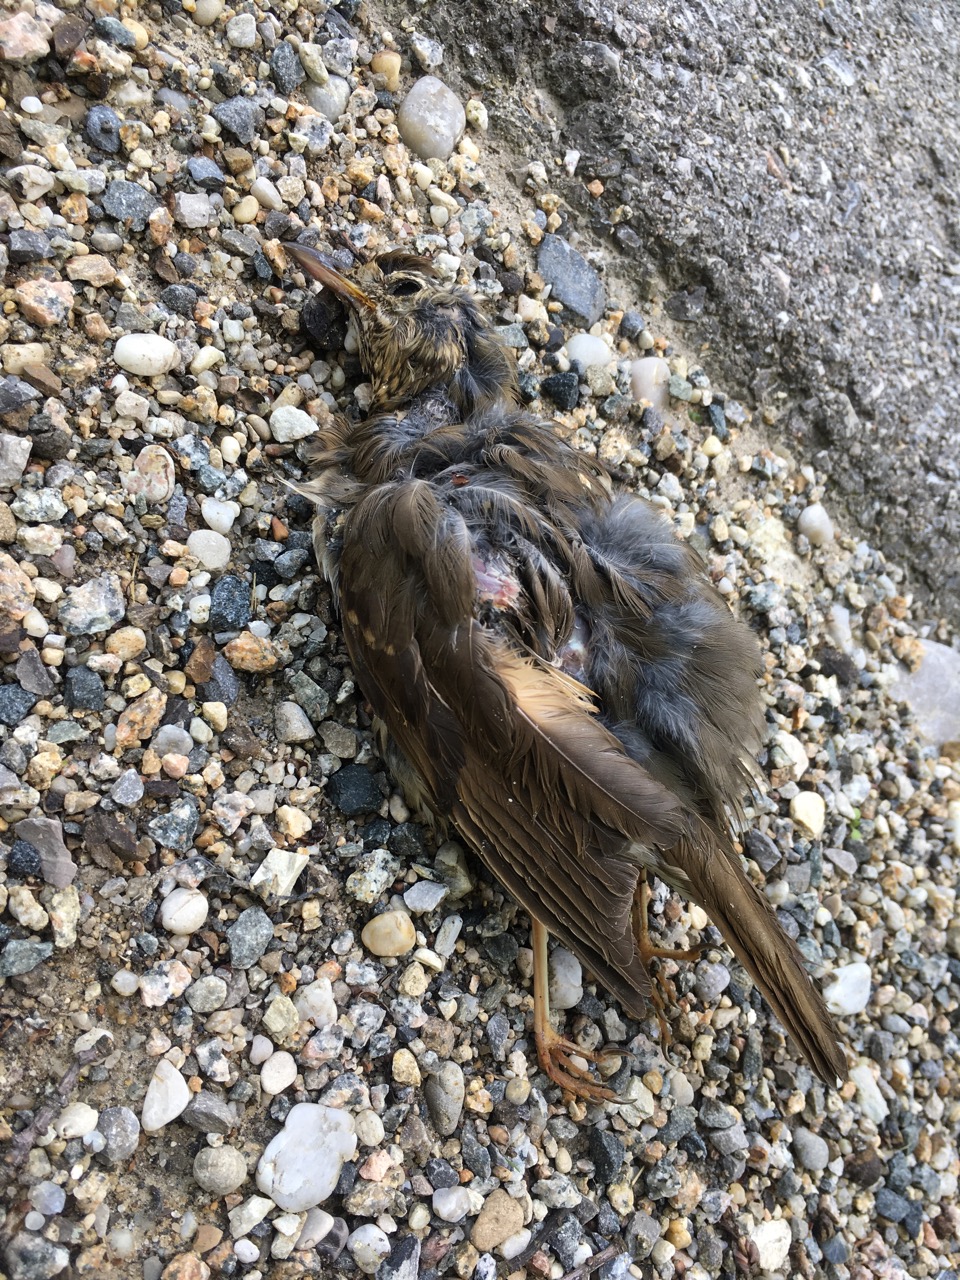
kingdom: Animalia
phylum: Chordata
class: Aves
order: Passeriformes
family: Turdidae
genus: Turdus
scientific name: Turdus philomelos
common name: Song thrush
